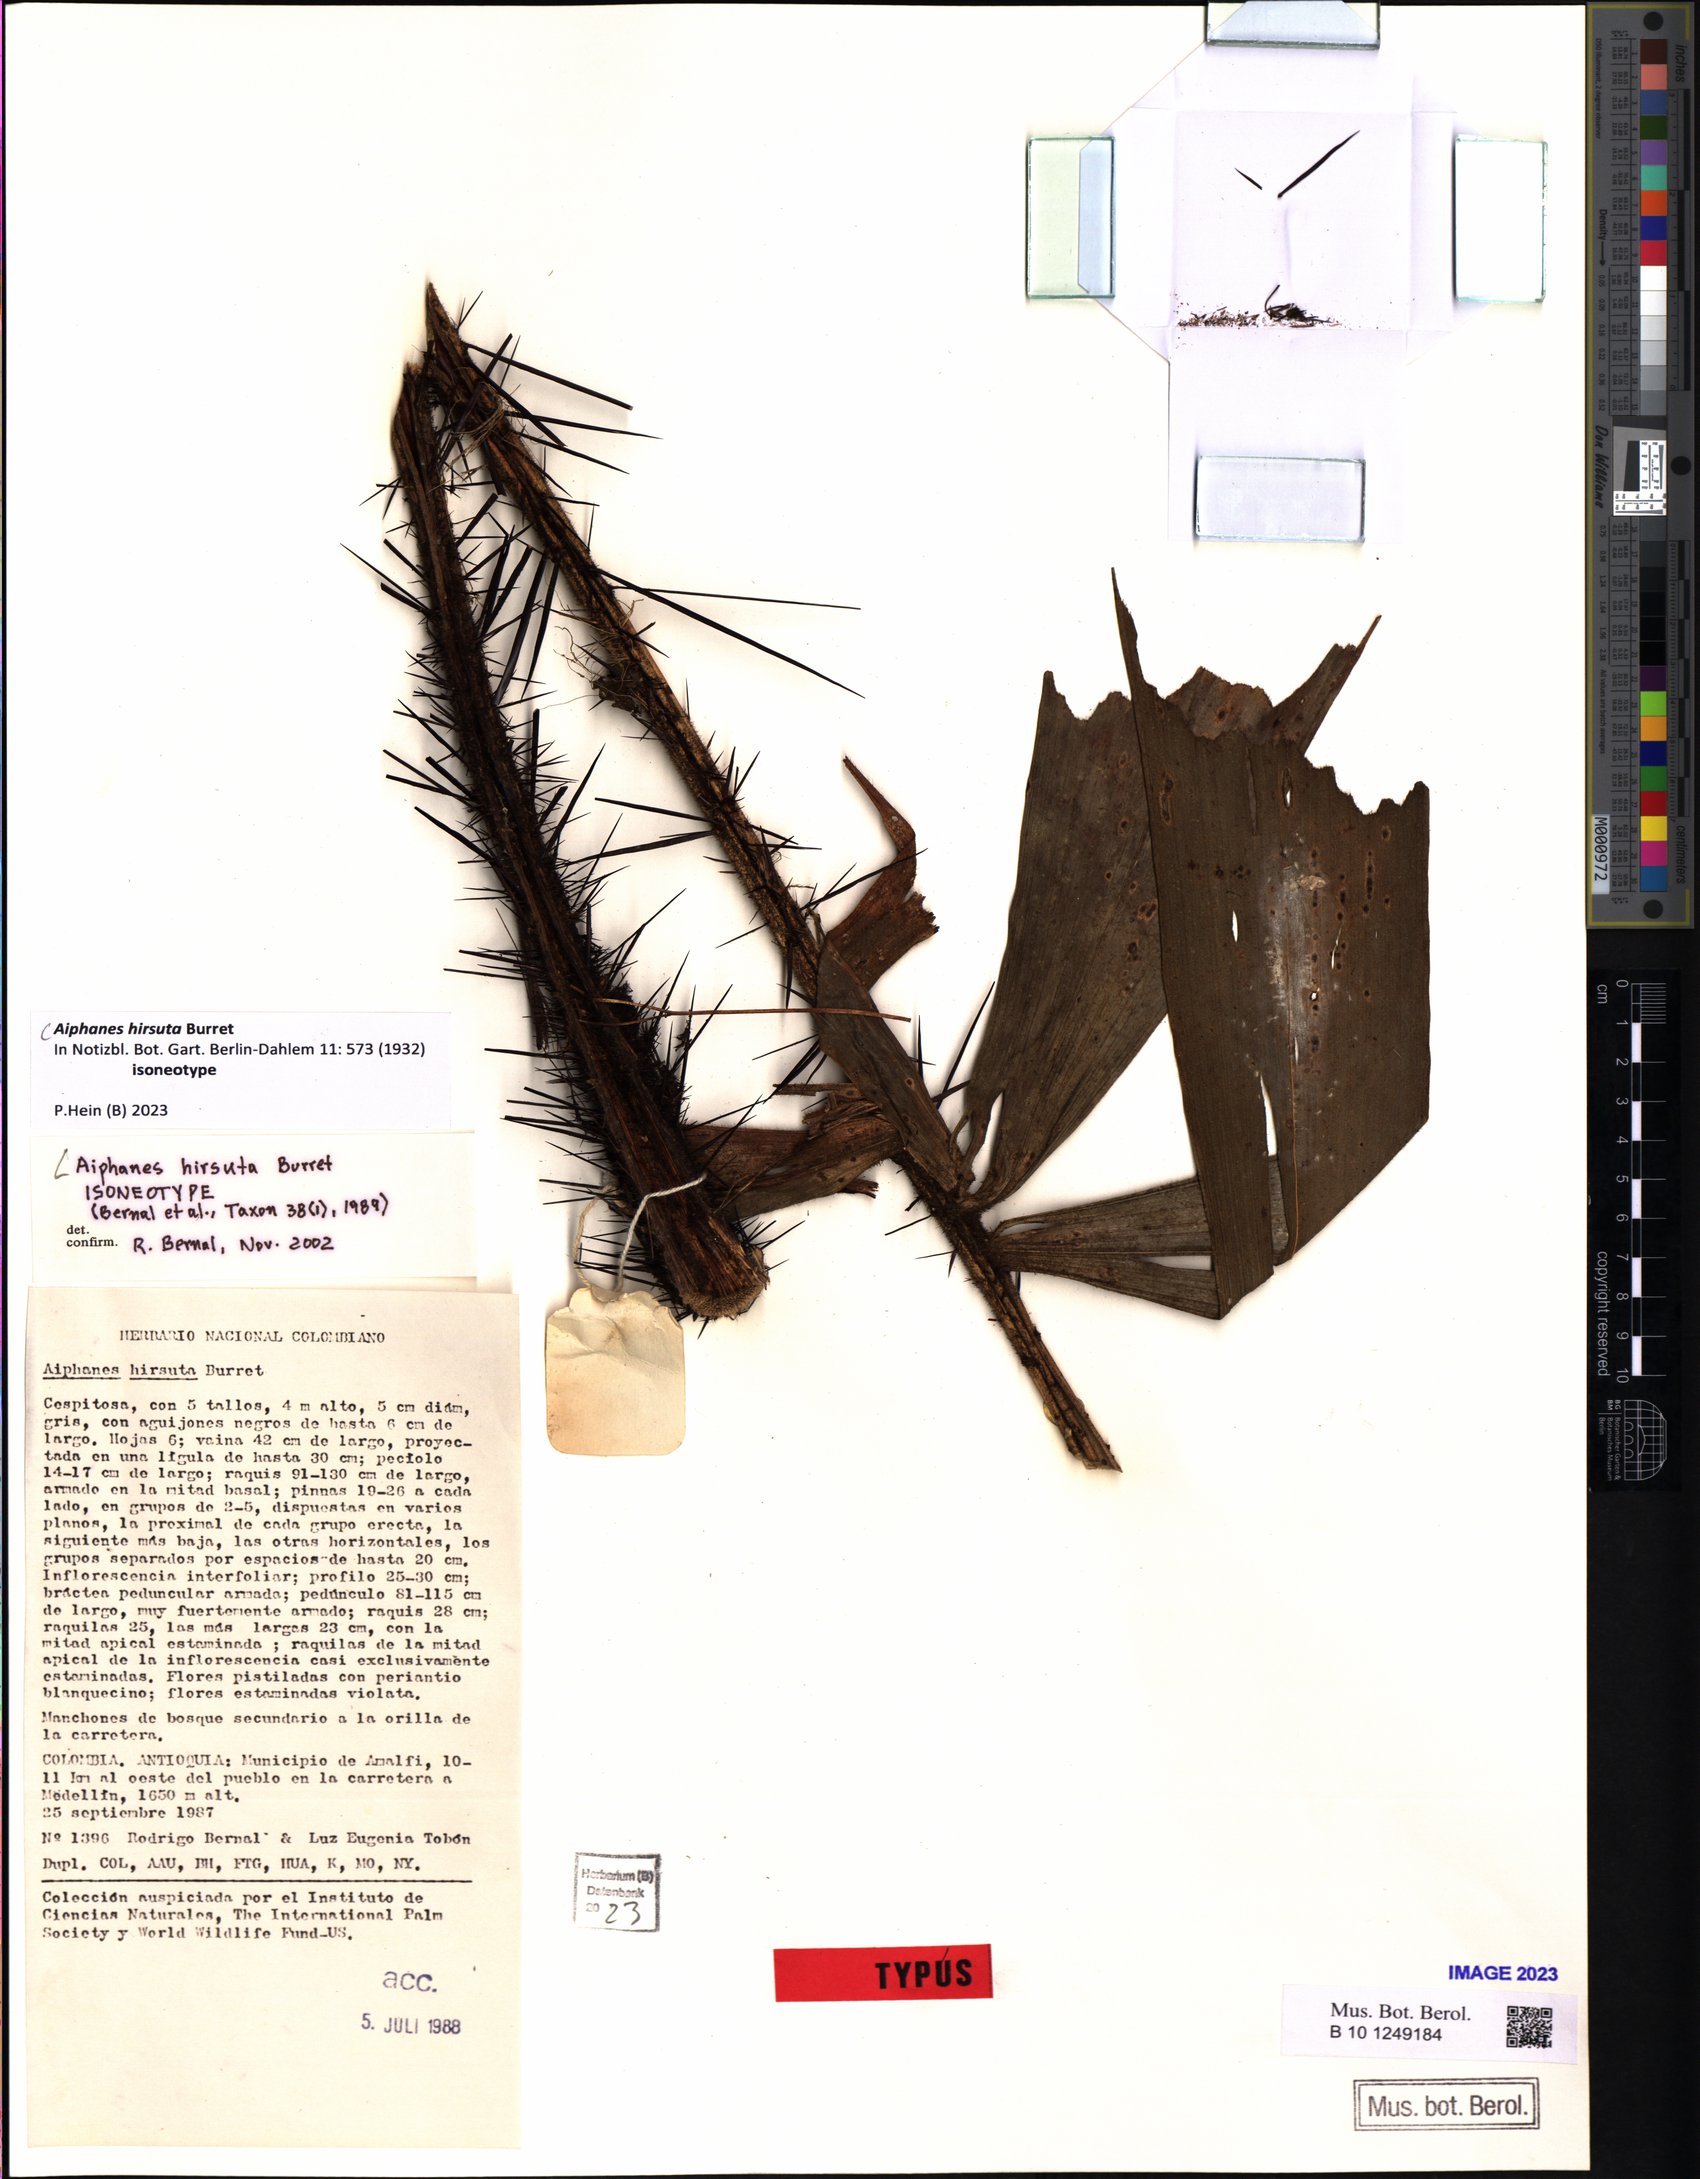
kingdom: Plantae
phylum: Tracheophyta
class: Liliopsida
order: Arecales
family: Arecaceae
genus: Aiphanes
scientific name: Aiphanes hirsuta
